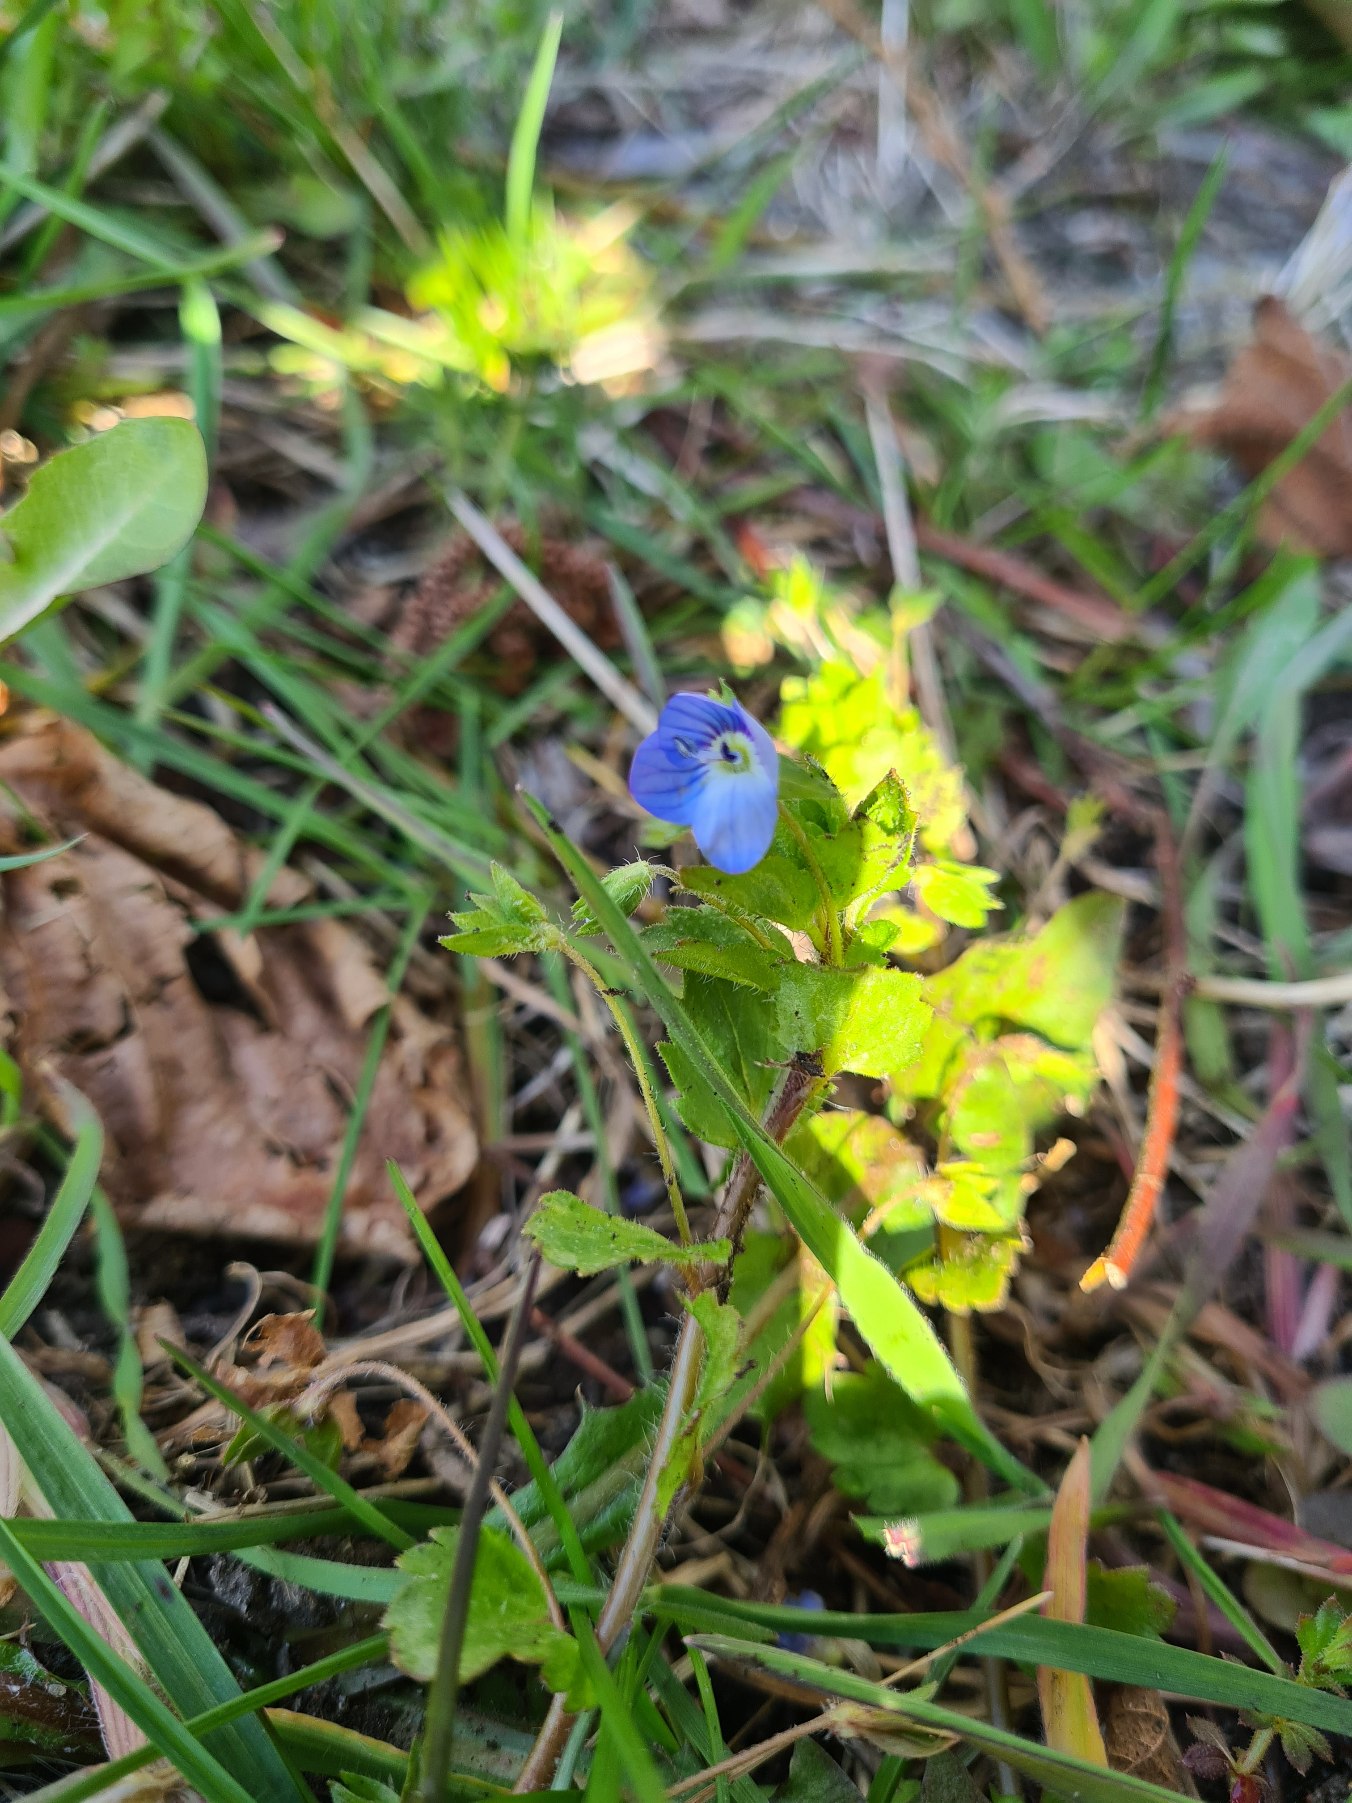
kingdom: Plantae
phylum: Tracheophyta
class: Magnoliopsida
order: Lamiales
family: Plantaginaceae
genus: Veronica
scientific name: Veronica persica
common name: Storkronet ærenpris
